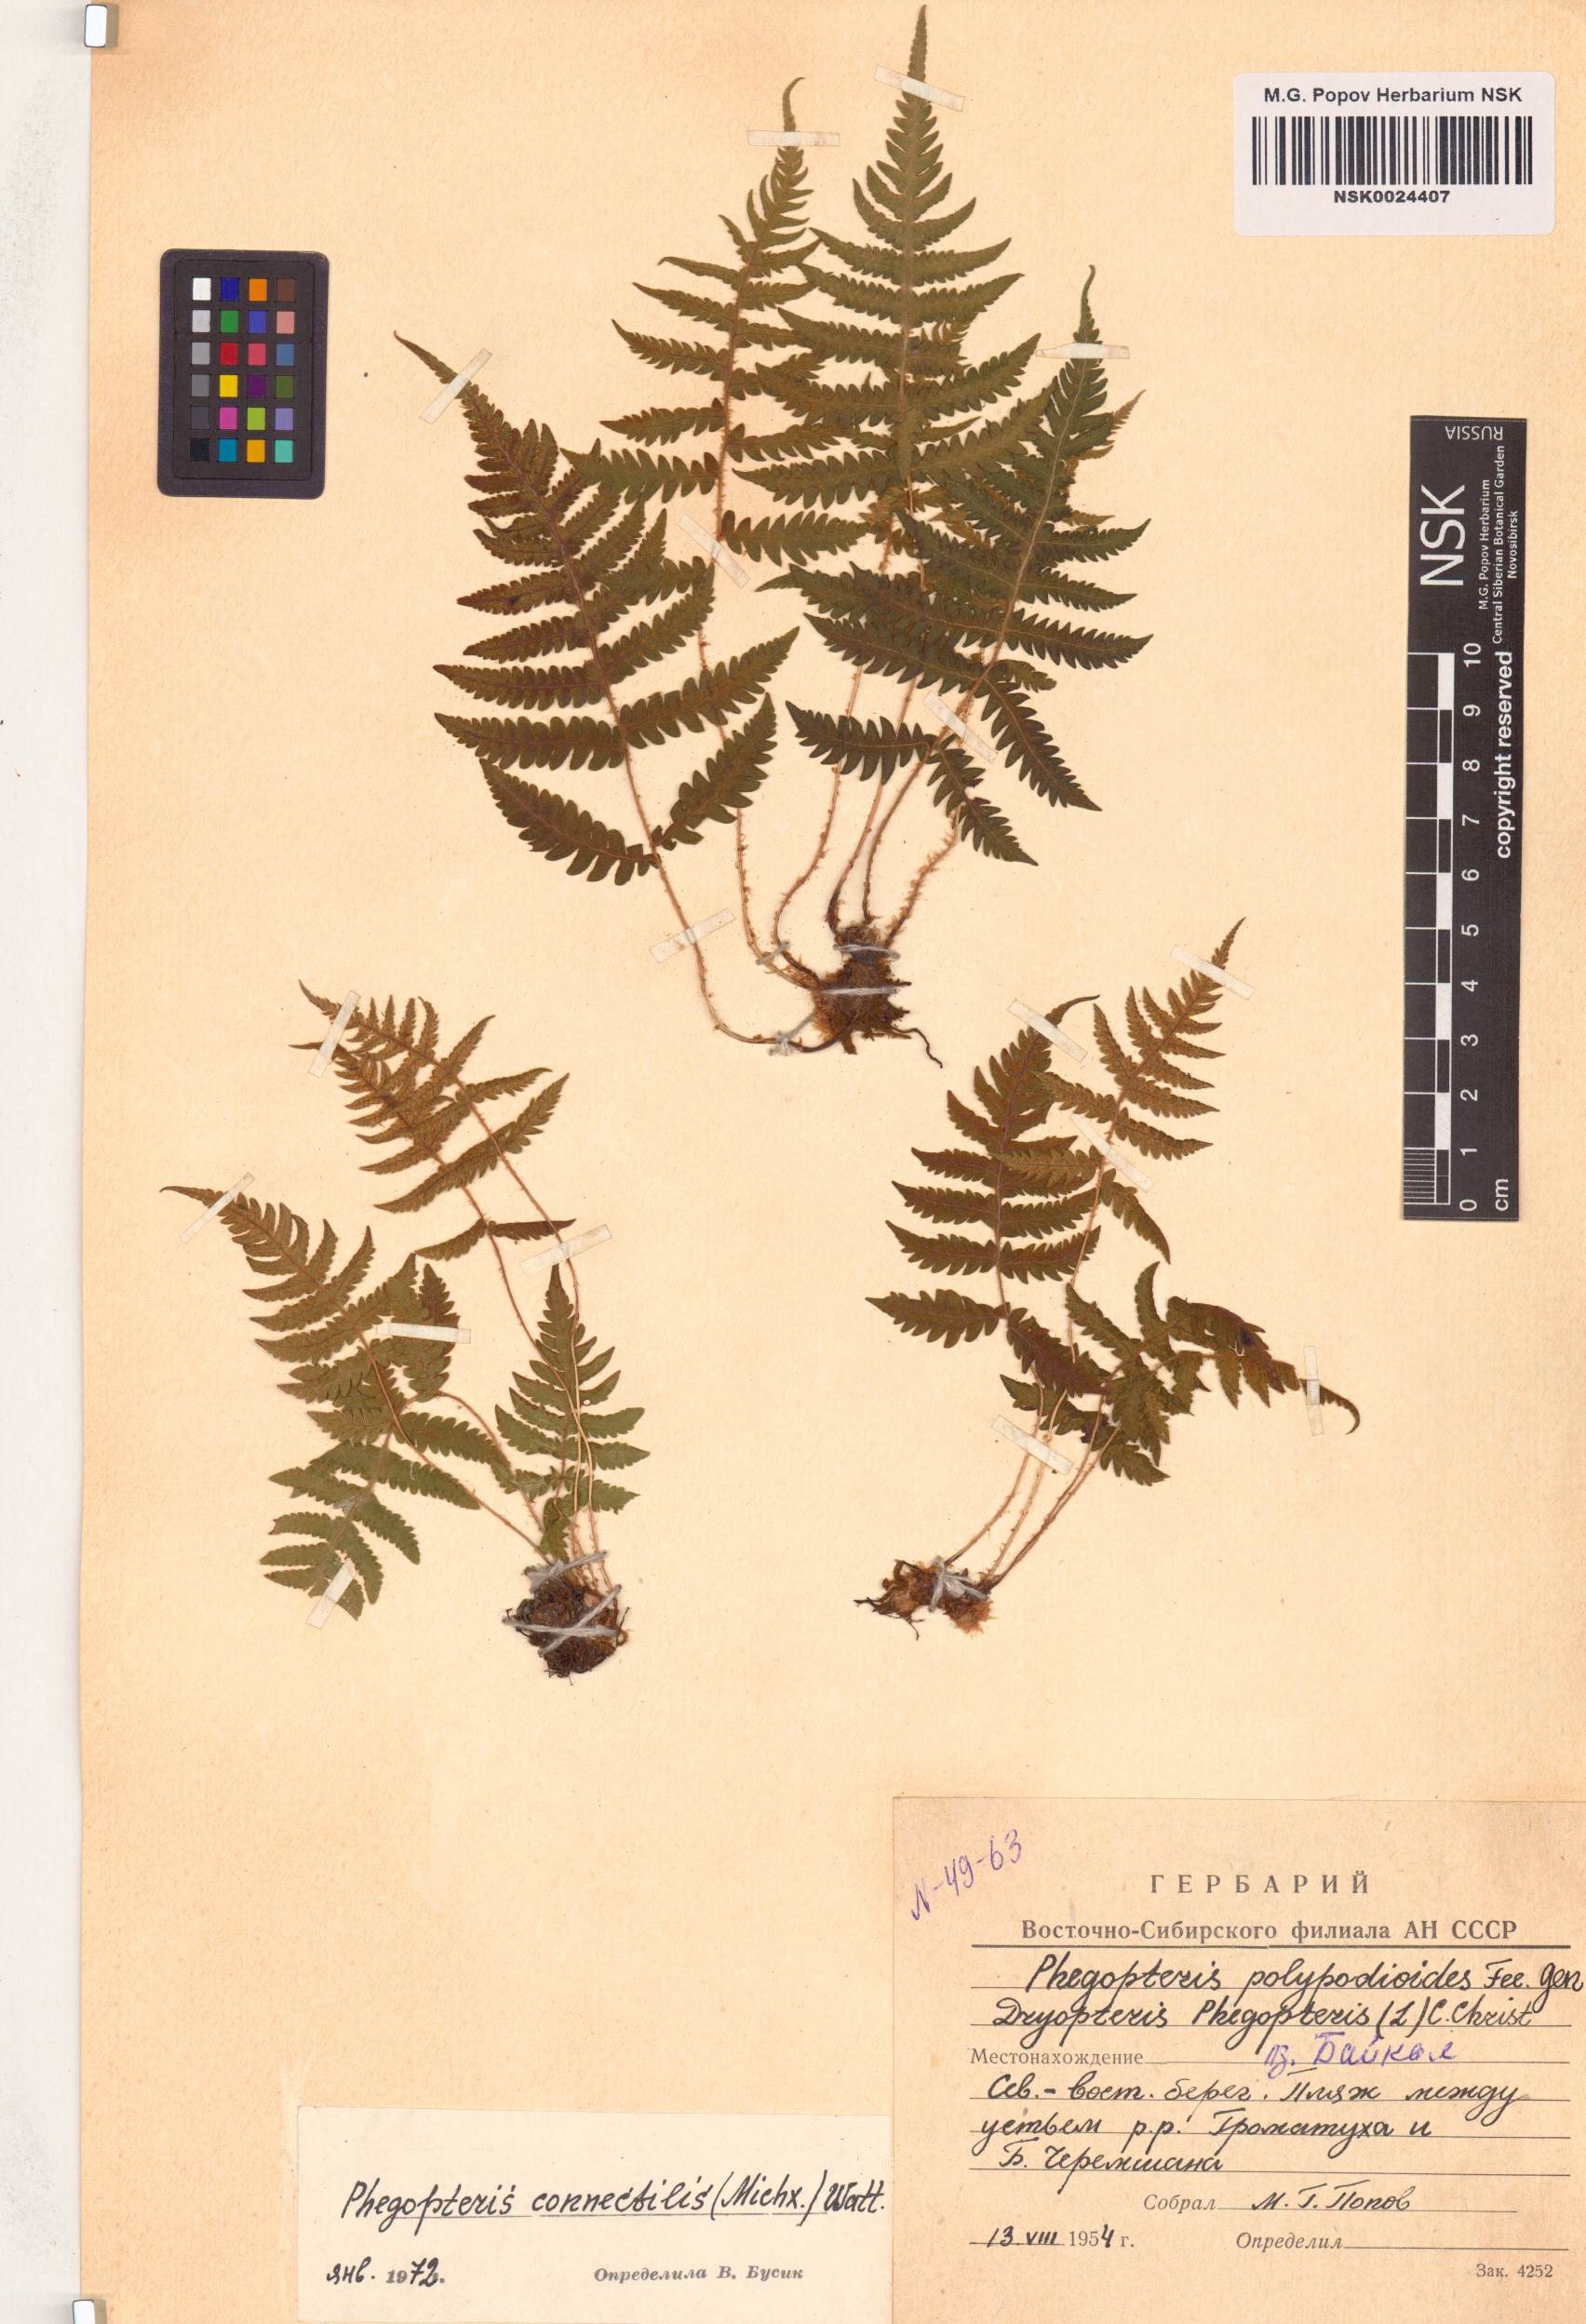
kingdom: Plantae
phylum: Tracheophyta
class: Polypodiopsida
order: Polypodiales
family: Thelypteridaceae
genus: Phegopteris
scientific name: Phegopteris connectilis
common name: Beech fern
